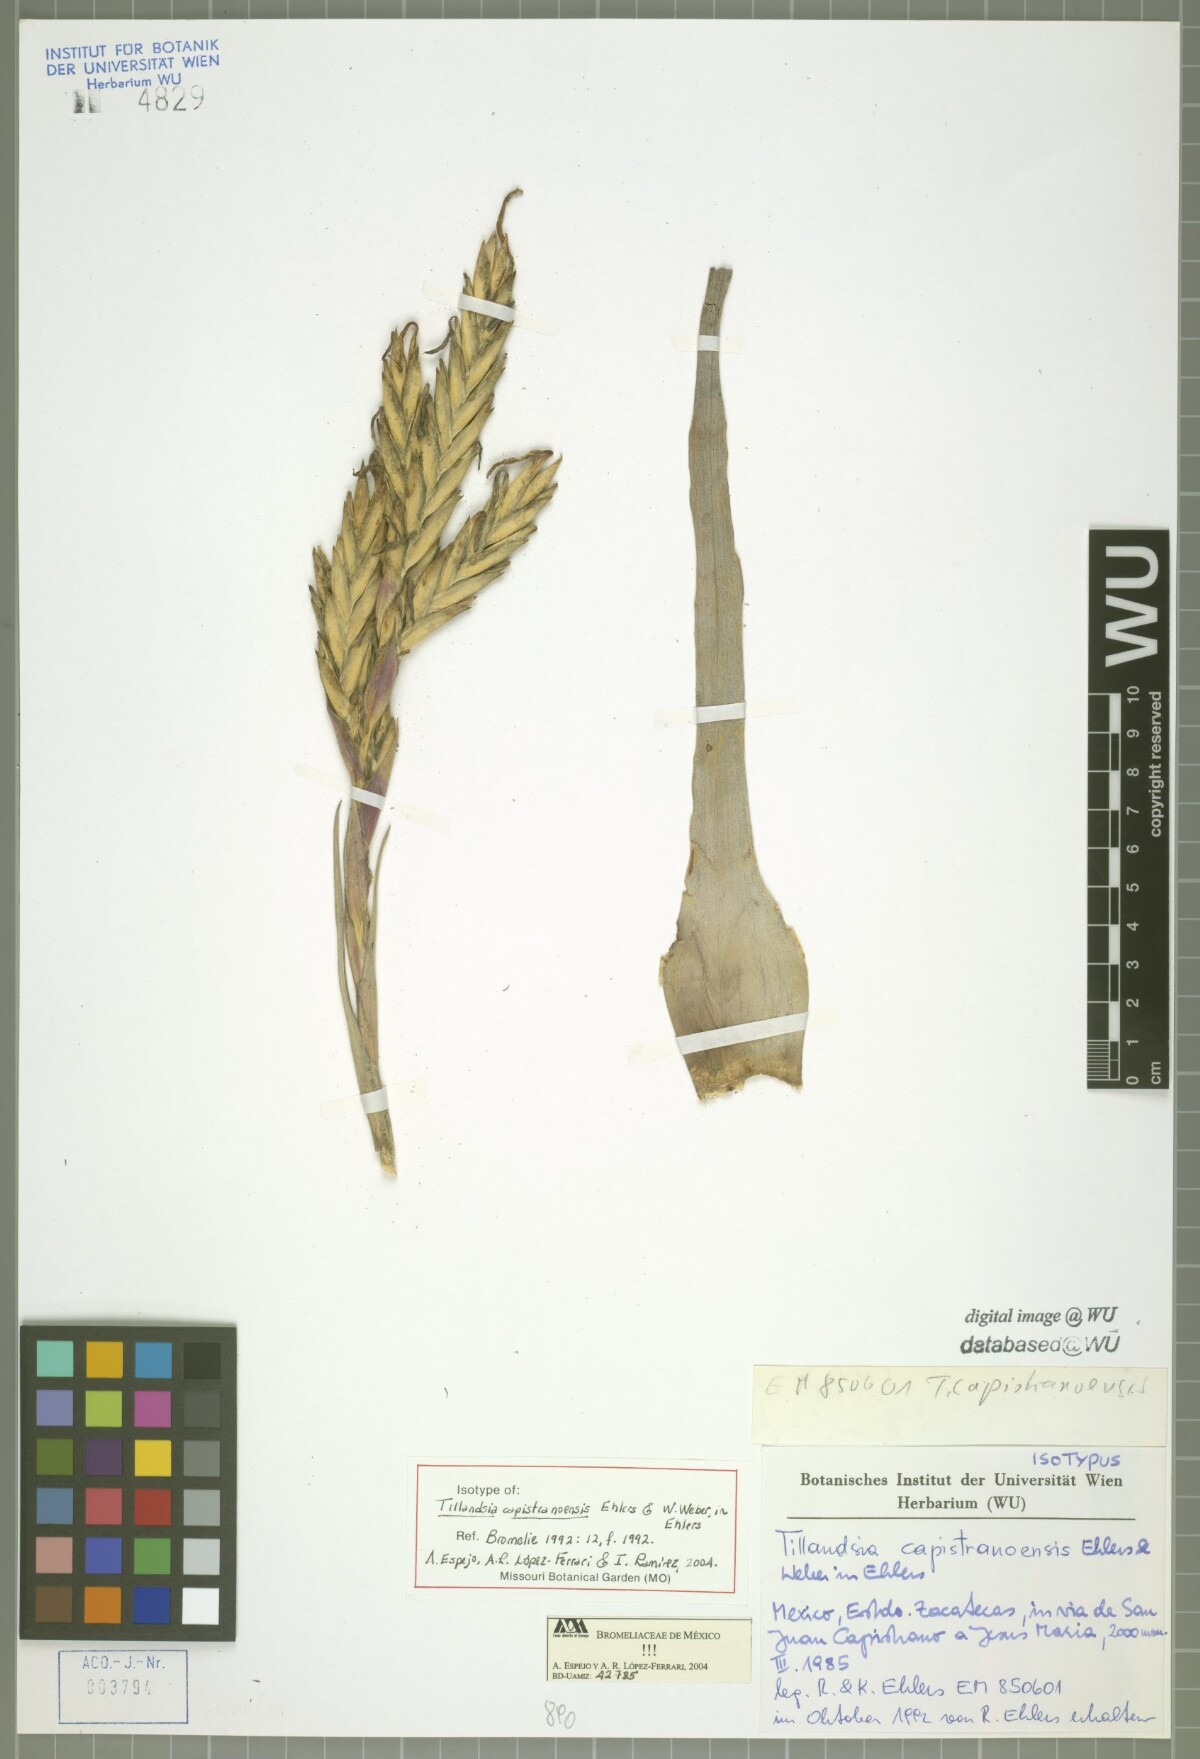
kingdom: Plantae
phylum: Tracheophyta
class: Liliopsida
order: Poales
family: Bromeliaceae
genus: Tillandsia
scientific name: Tillandsia capistranoensis
